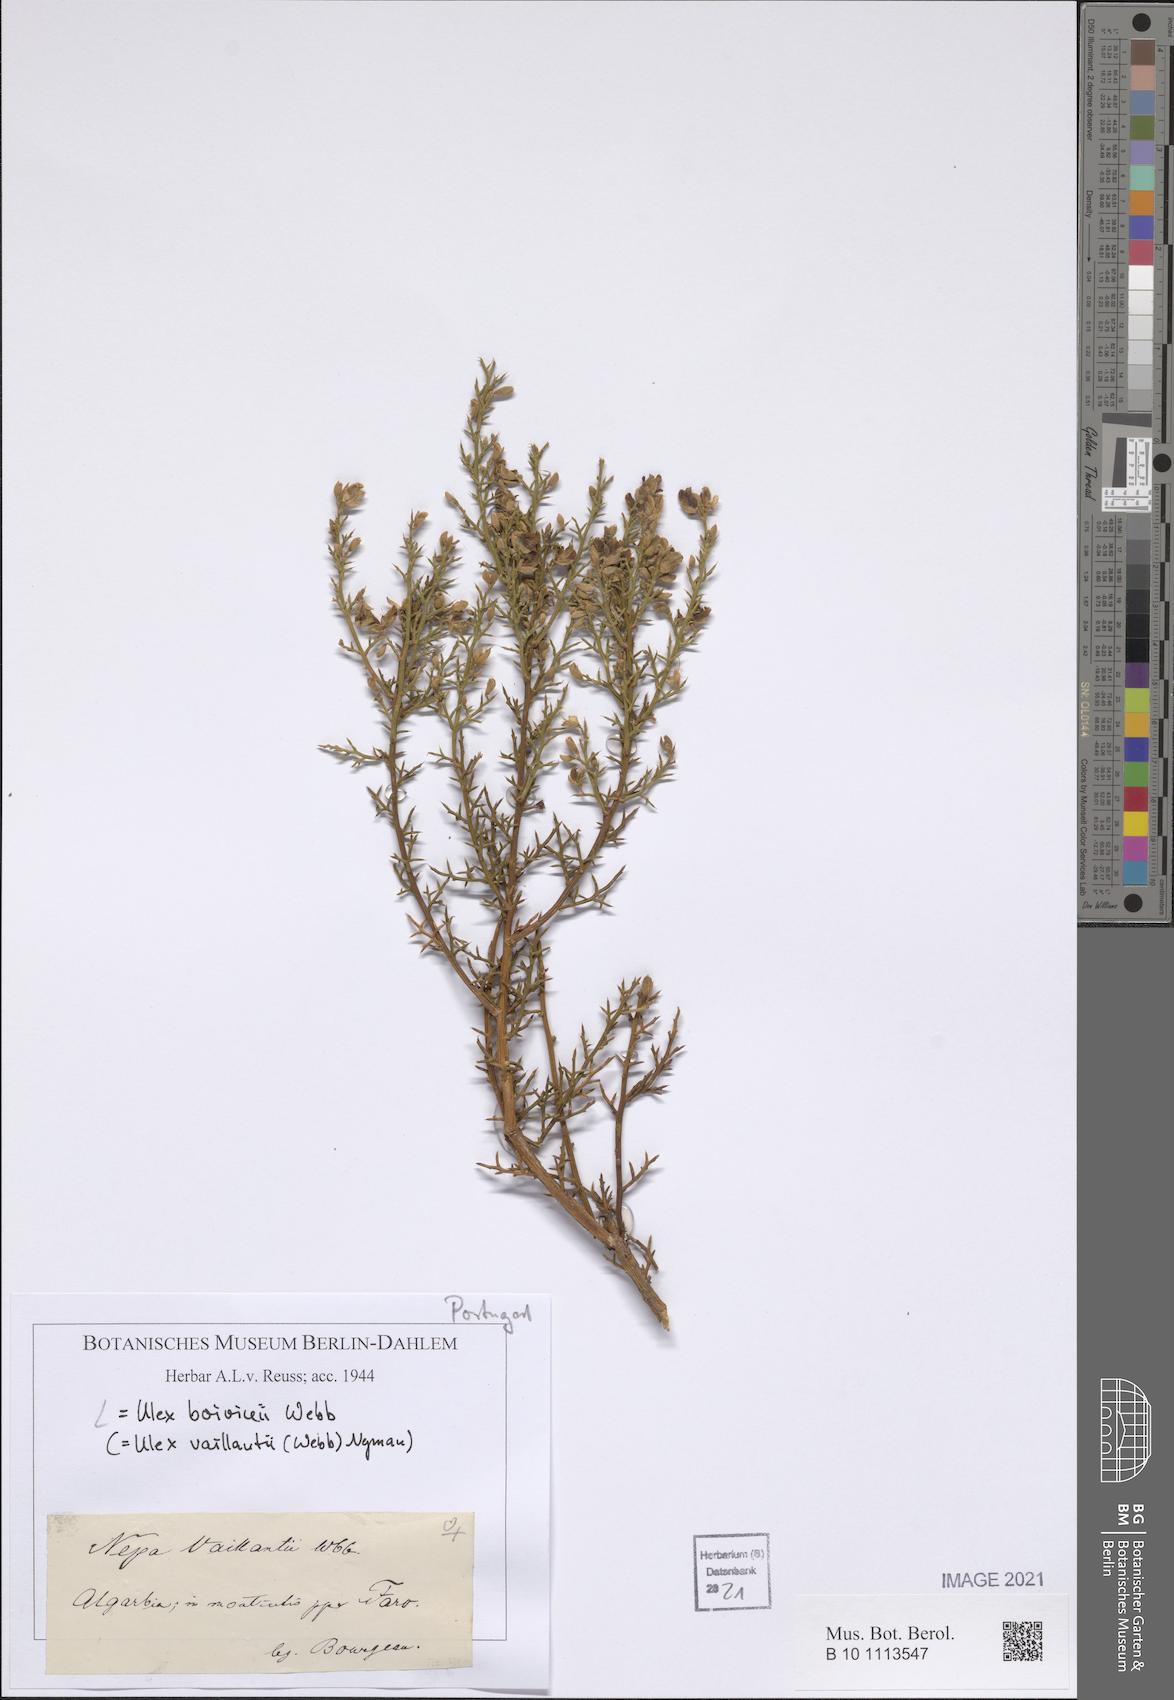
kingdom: Plantae
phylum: Tracheophyta
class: Magnoliopsida
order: Fabales
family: Fabaceae
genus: Stauracanthus
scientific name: Stauracanthus boivinii
